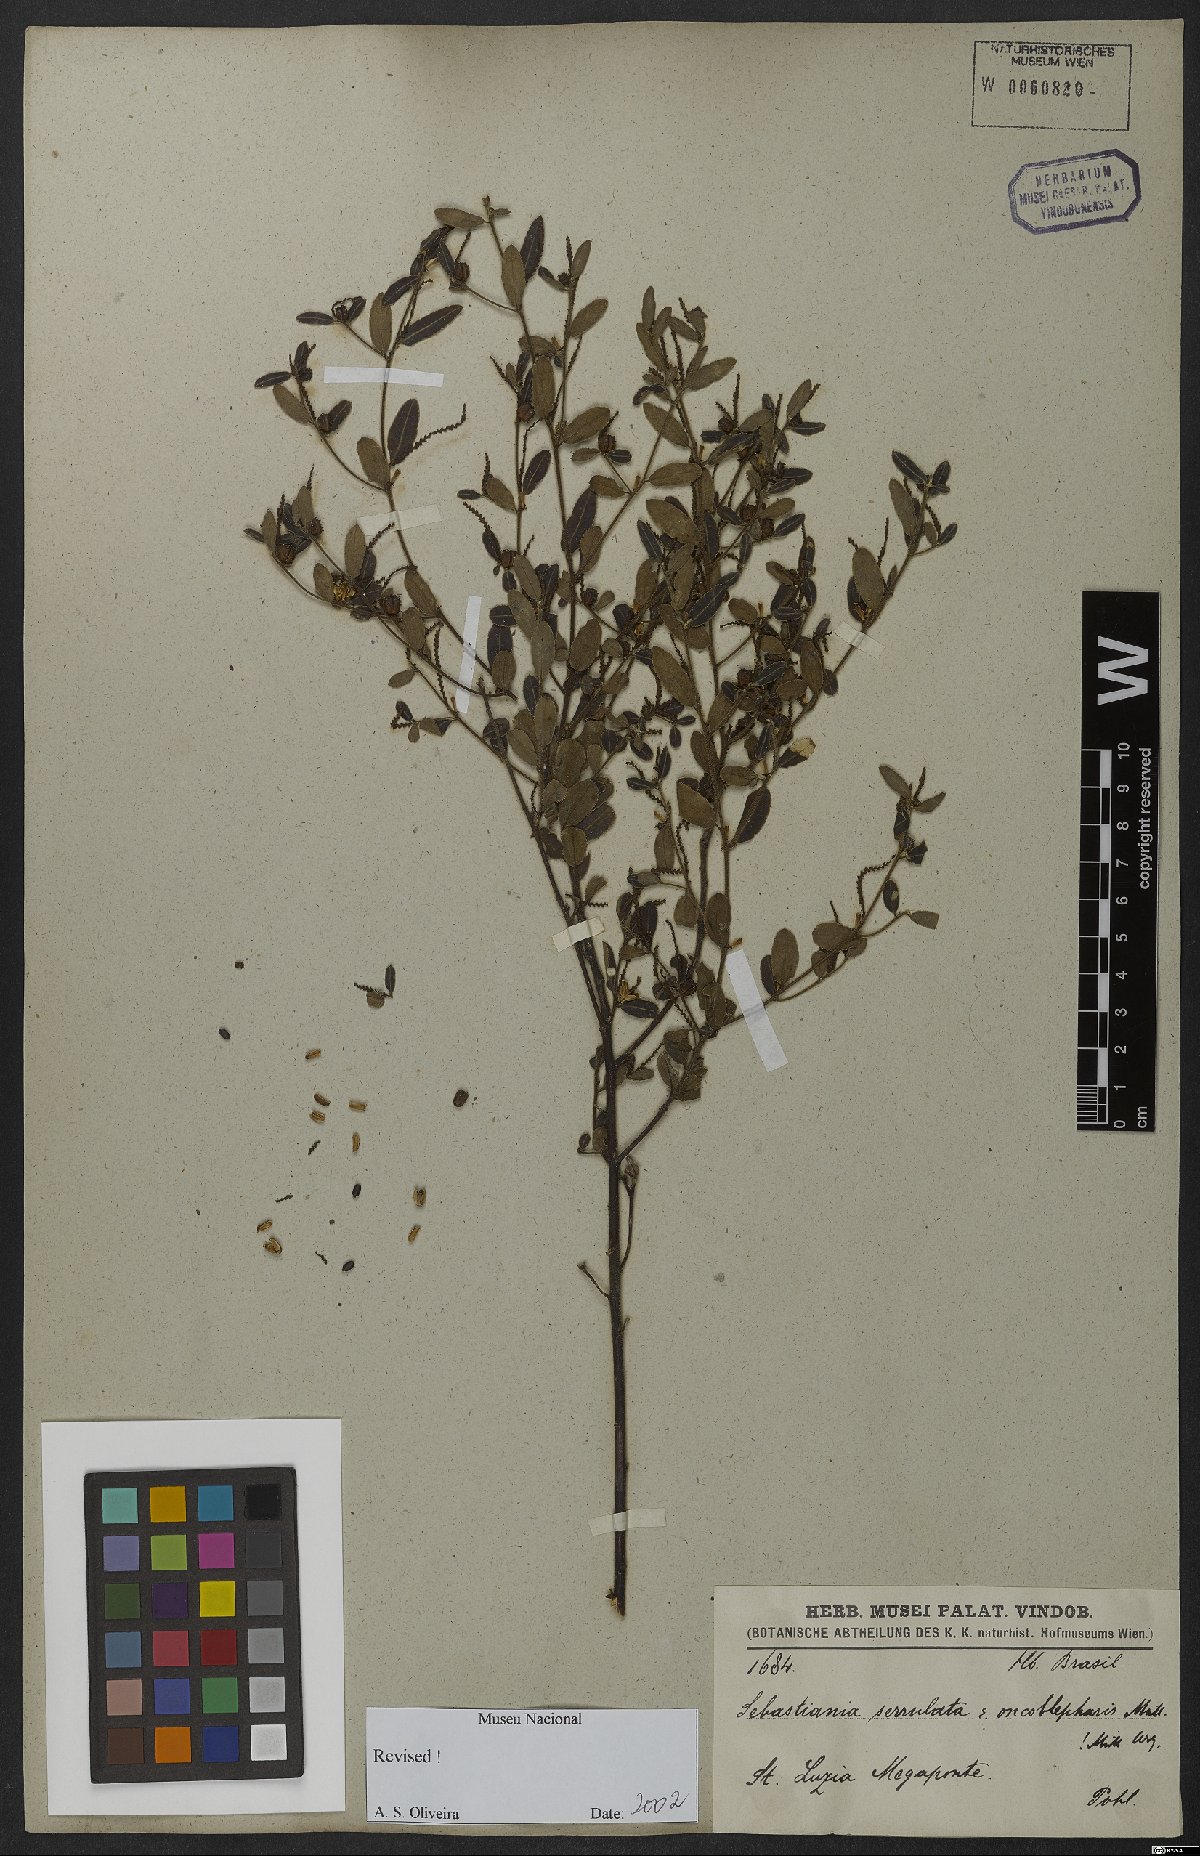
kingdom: Plantae
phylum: Tracheophyta
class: Magnoliopsida
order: Malpighiales
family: Euphorbiaceae
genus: Microstachys
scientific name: Microstachys serrulata
